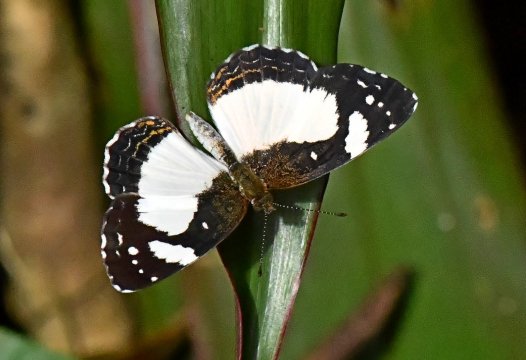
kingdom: Animalia
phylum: Arthropoda
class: Insecta
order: Lepidoptera
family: Nymphalidae
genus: Janatella
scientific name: Janatella leucodesma
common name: Whitened Crescent
